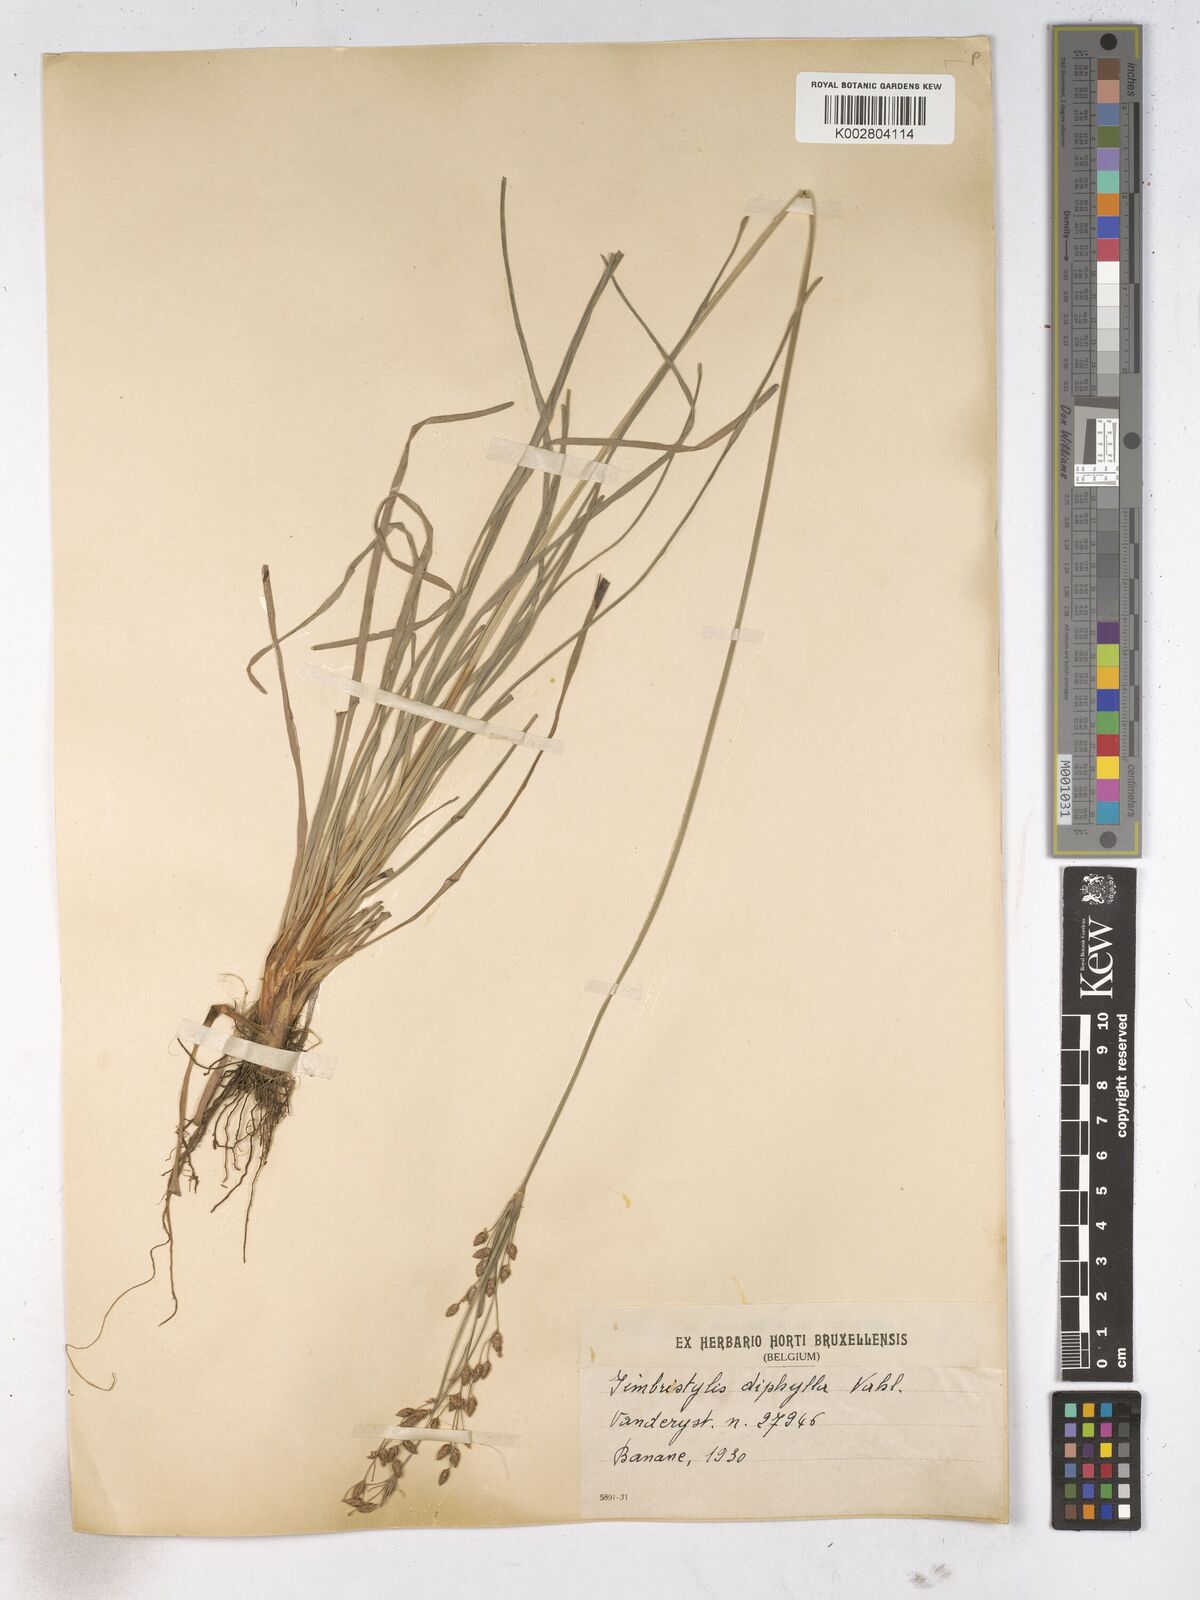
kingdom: Plantae
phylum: Tracheophyta
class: Liliopsida
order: Poales
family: Cyperaceae
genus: Fimbristylis
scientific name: Fimbristylis dichotoma
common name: Forked fimbry
